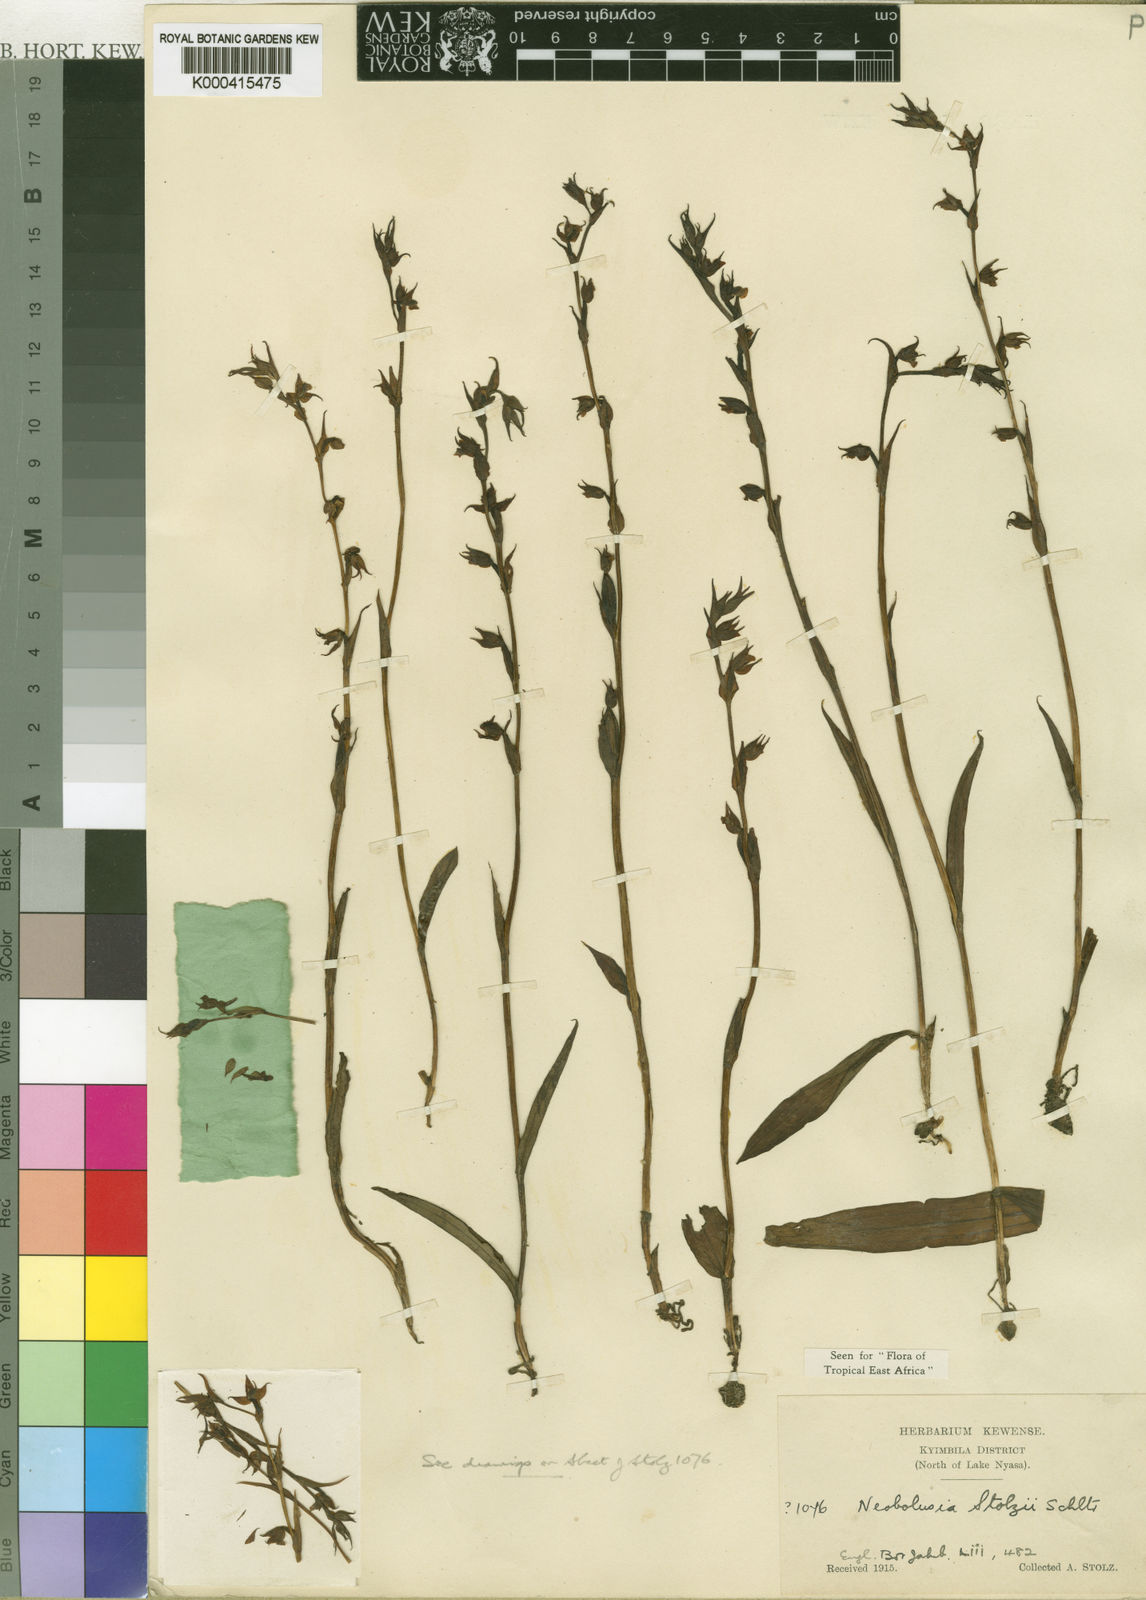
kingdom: Plantae
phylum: Tracheophyta
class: Liliopsida
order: Asparagales
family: Orchidaceae
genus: Neobolusia
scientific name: Neobolusia stolzii
